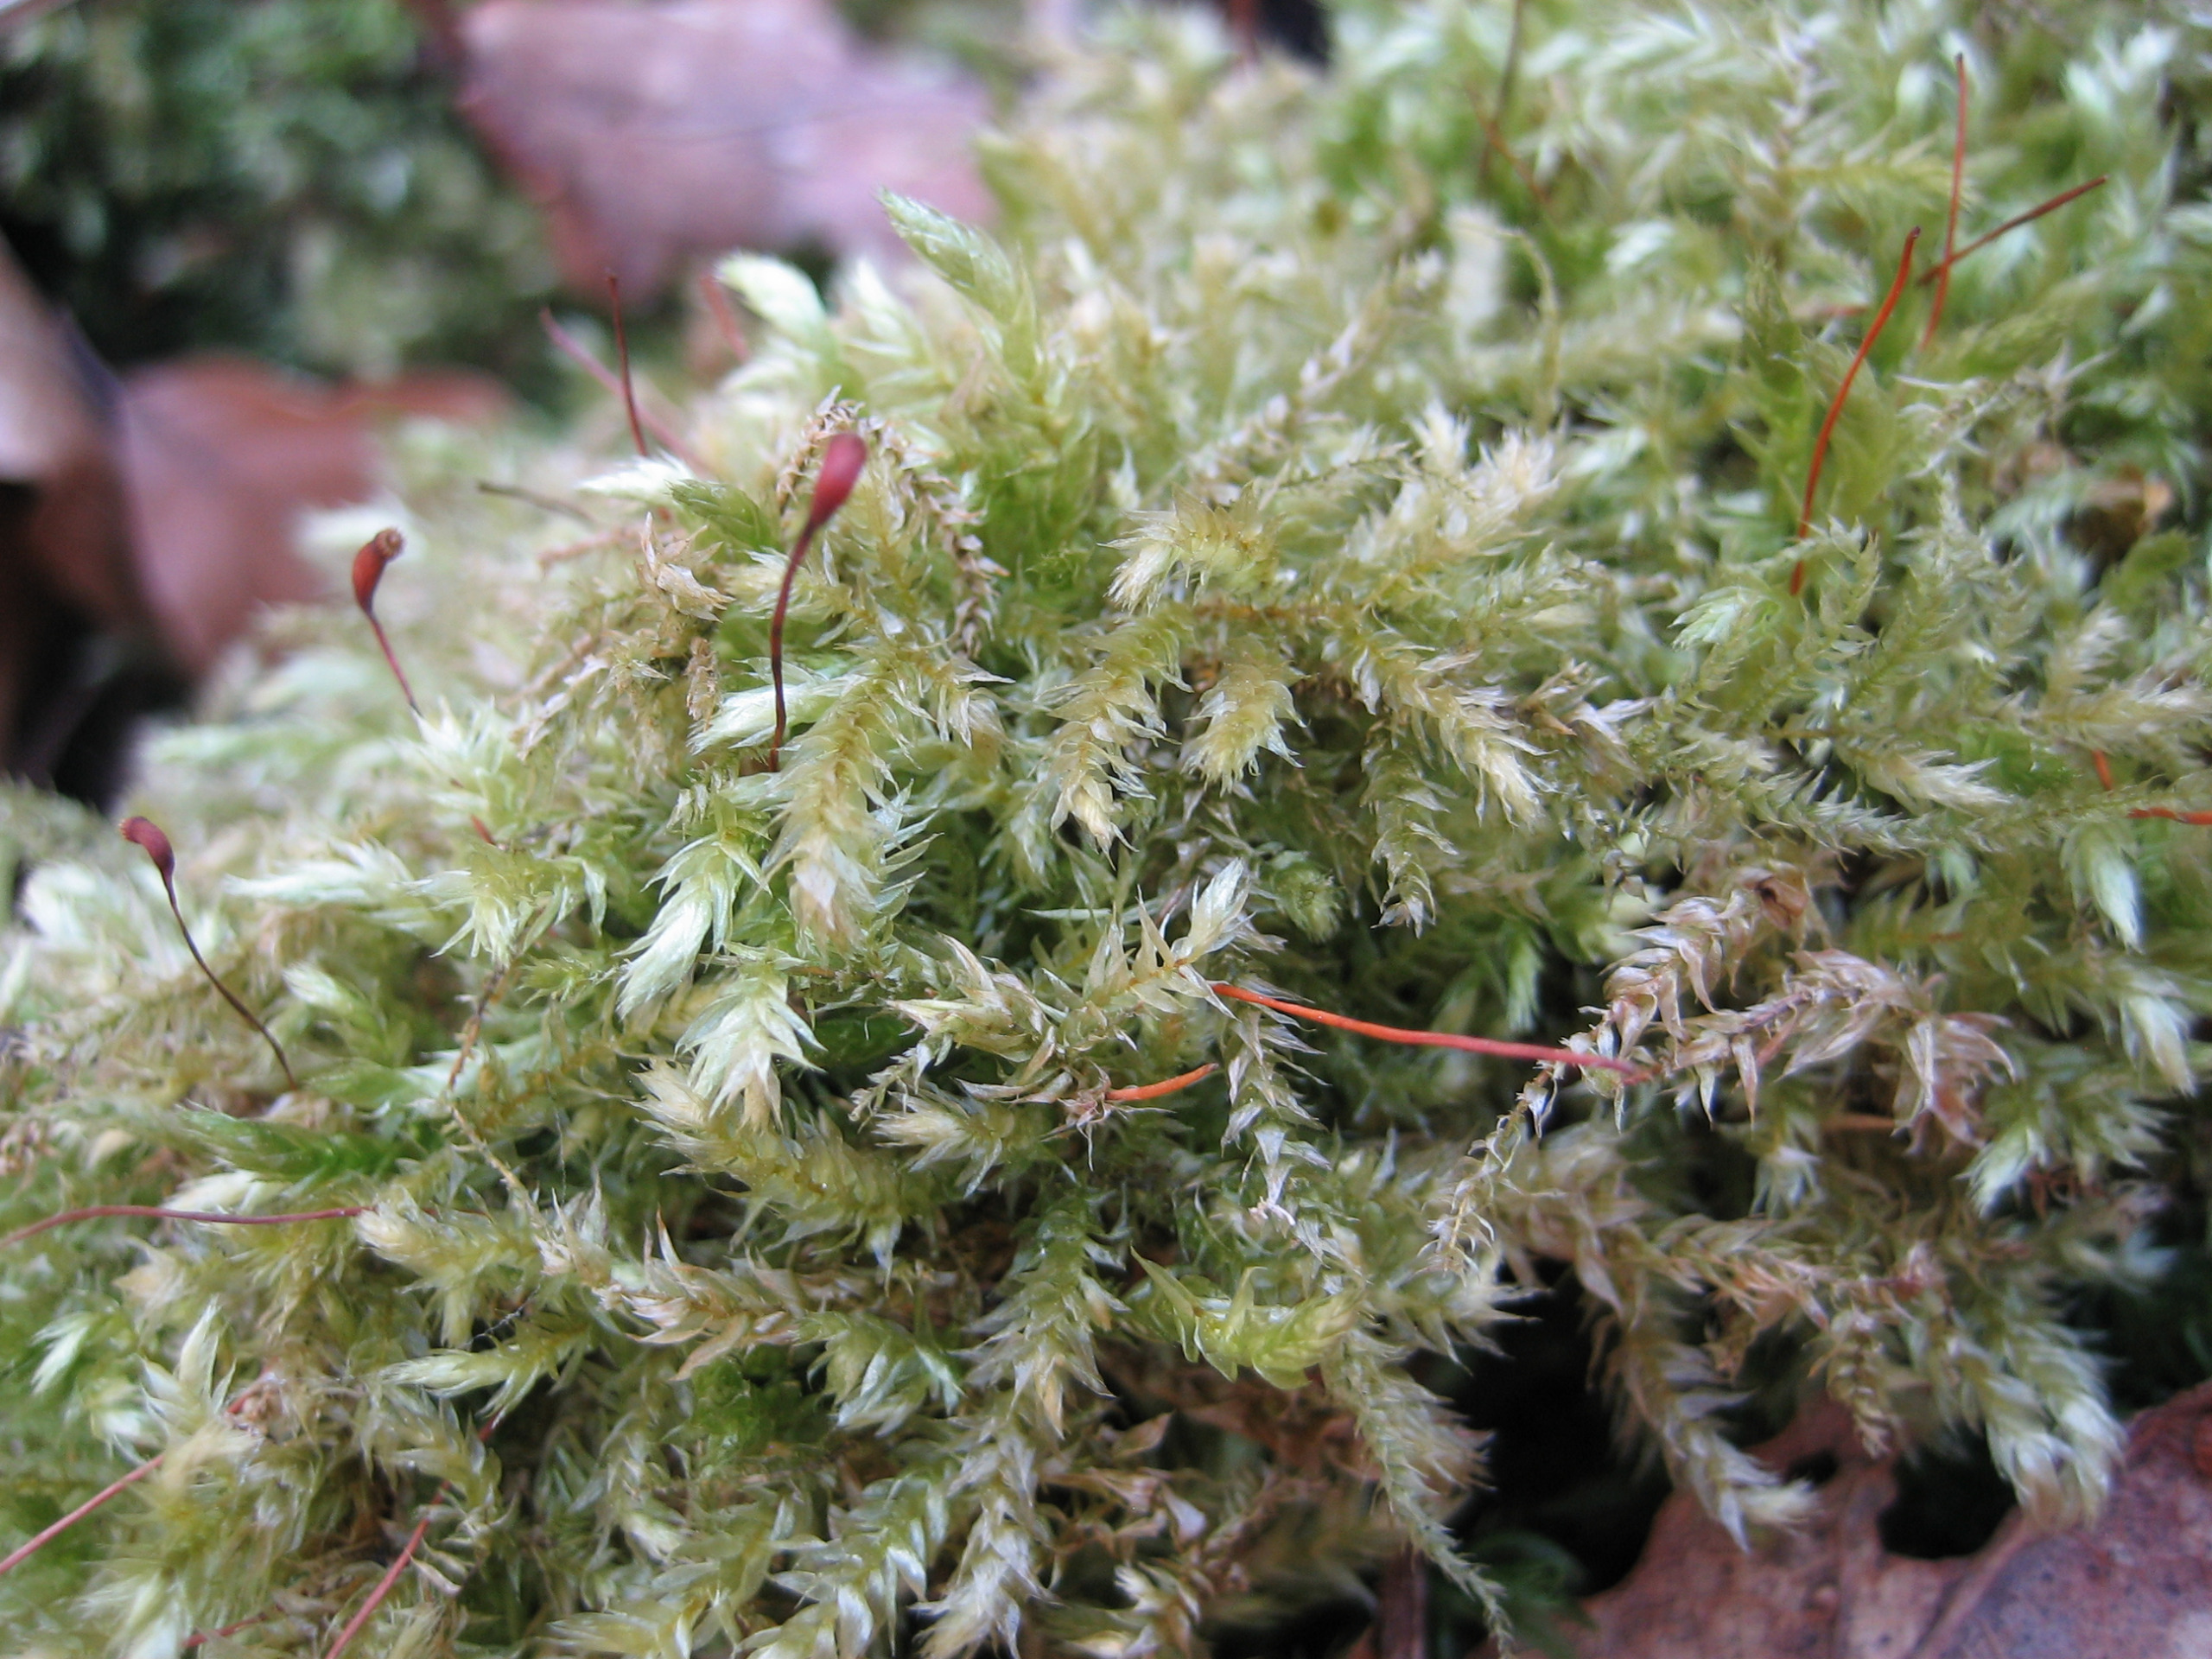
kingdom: Plantae
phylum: Bryophyta
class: Bryopsida
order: Hypnales
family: Brachytheciaceae
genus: Brachythecium
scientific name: Brachythecium rutabulum
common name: Almindelig kortkapsel
